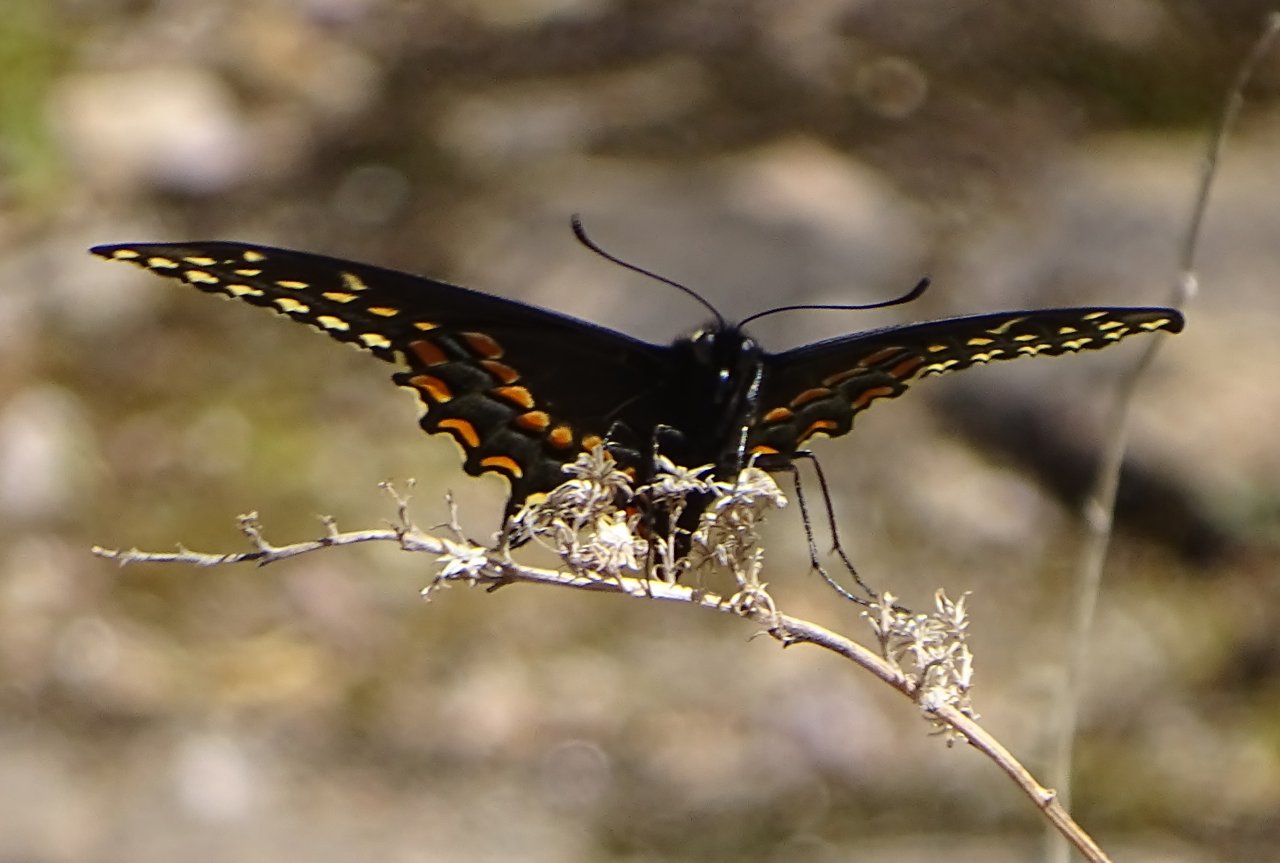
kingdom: Animalia
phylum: Arthropoda
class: Insecta
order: Lepidoptera
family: Papilionidae
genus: Papilio
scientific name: Papilio polyxenes
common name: Black Swallowtail
